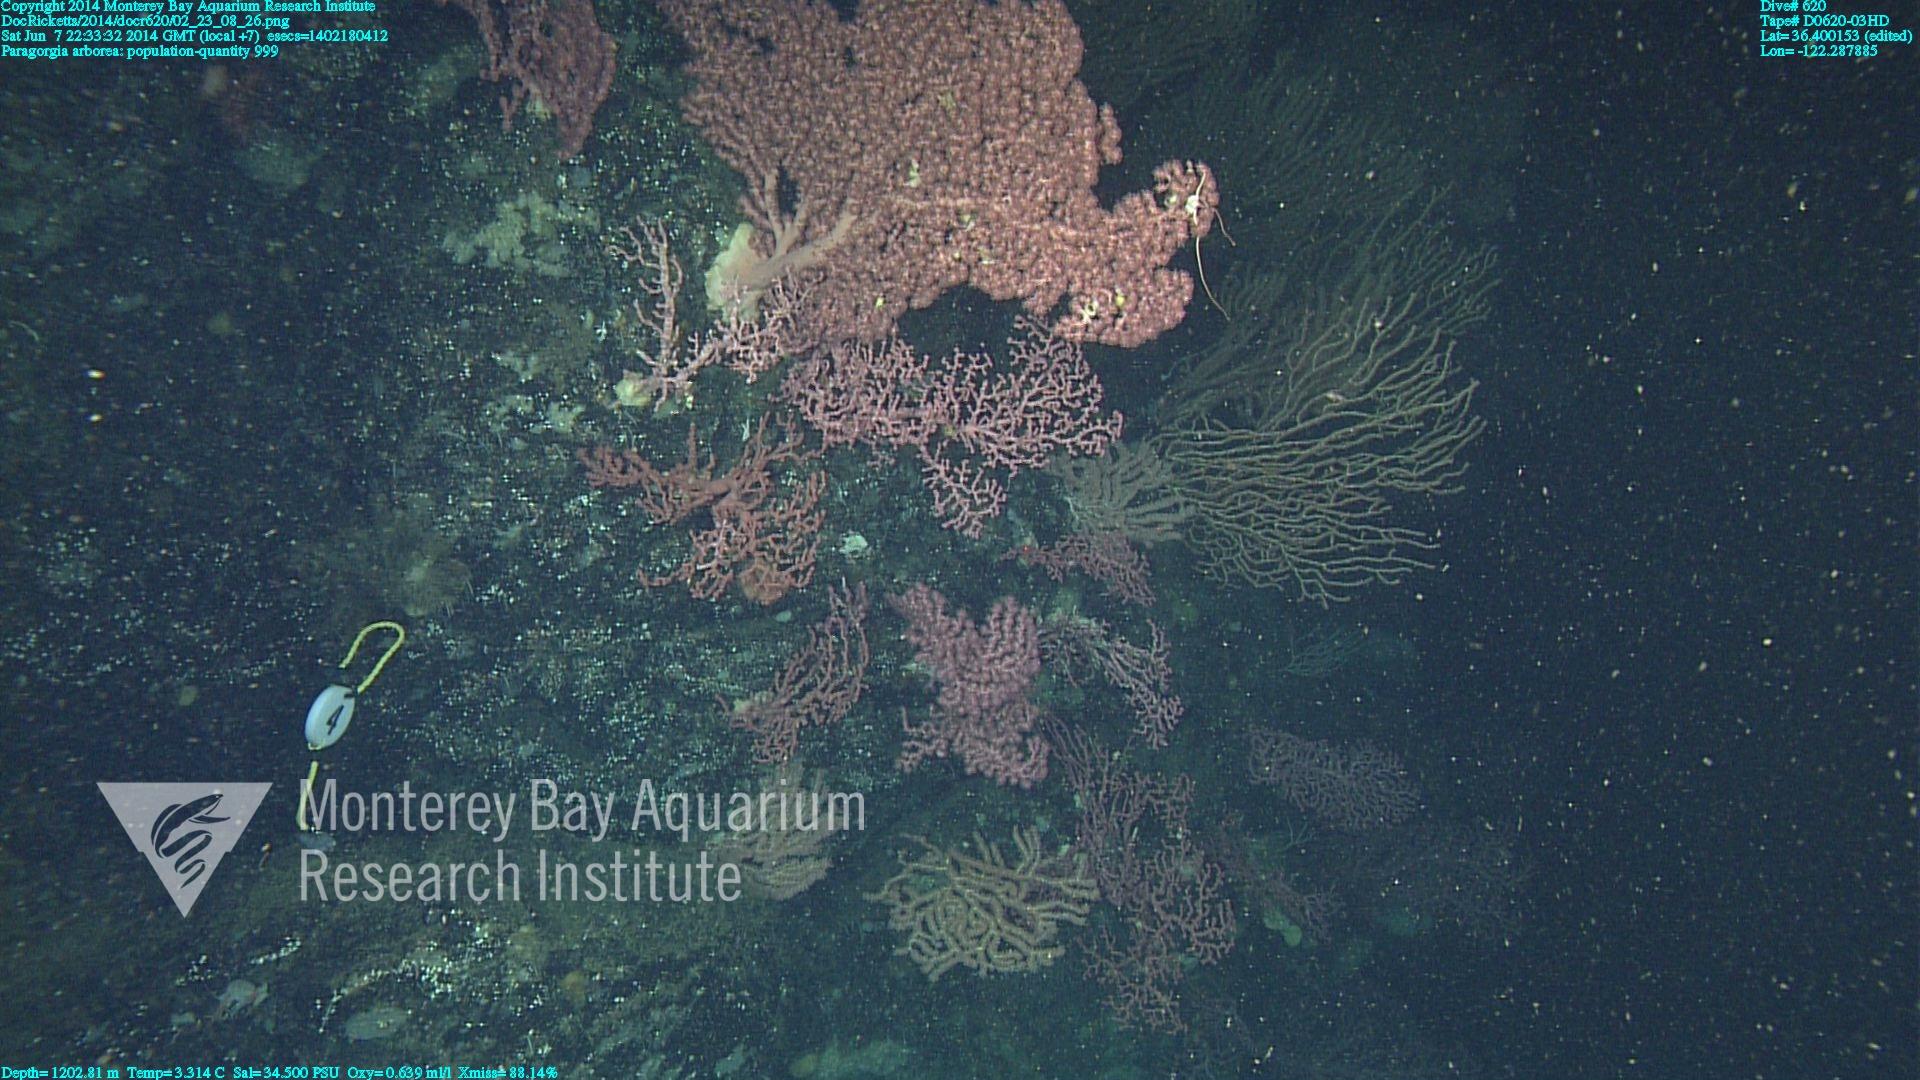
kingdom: Animalia
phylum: Cnidaria
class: Anthozoa
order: Scleralcyonacea
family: Coralliidae
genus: Paragorgia
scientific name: Paragorgia arborea
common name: Bubble gum coral
